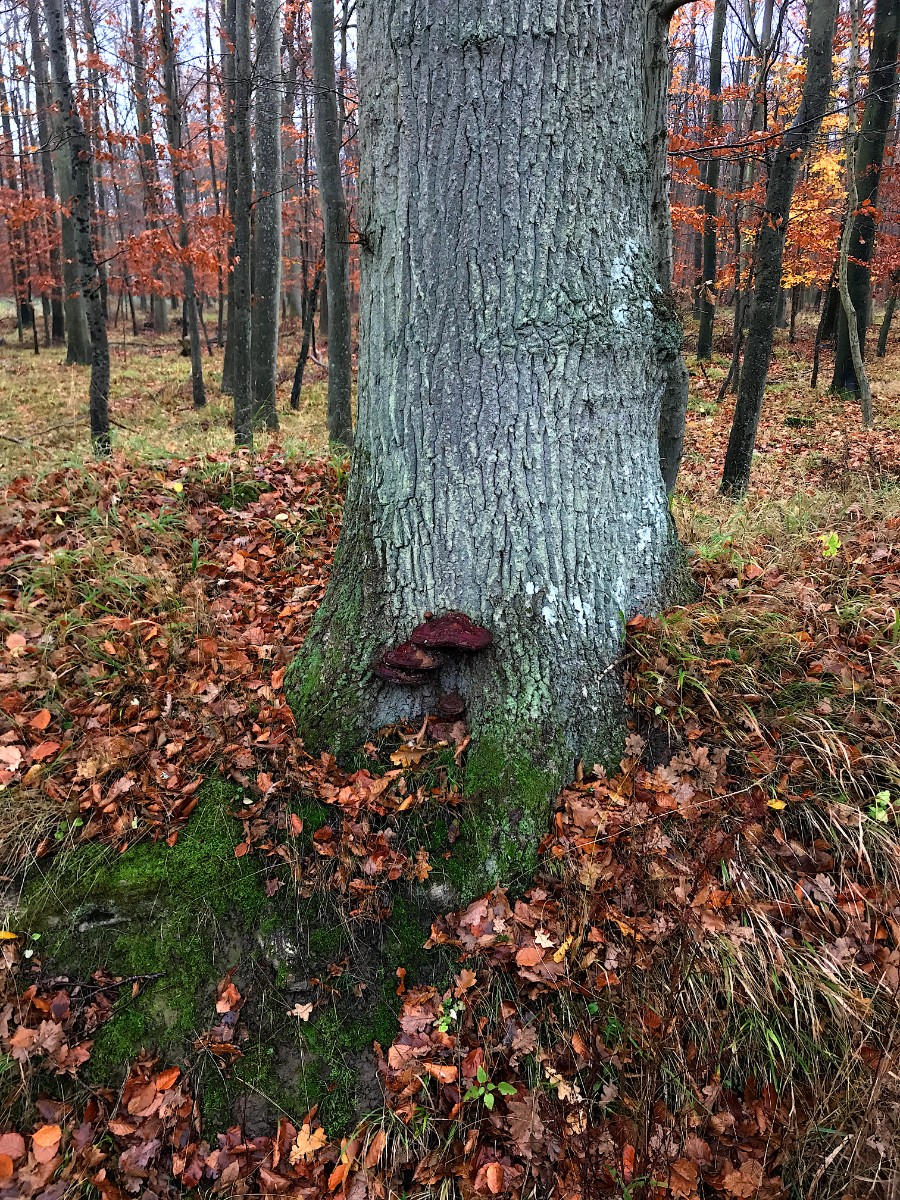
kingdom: Fungi
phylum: Basidiomycota
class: Agaricomycetes
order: Polyporales
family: Polyporaceae
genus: Ganoderma
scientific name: Ganoderma resinaceum
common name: gyldenbrun lakporesvamp
